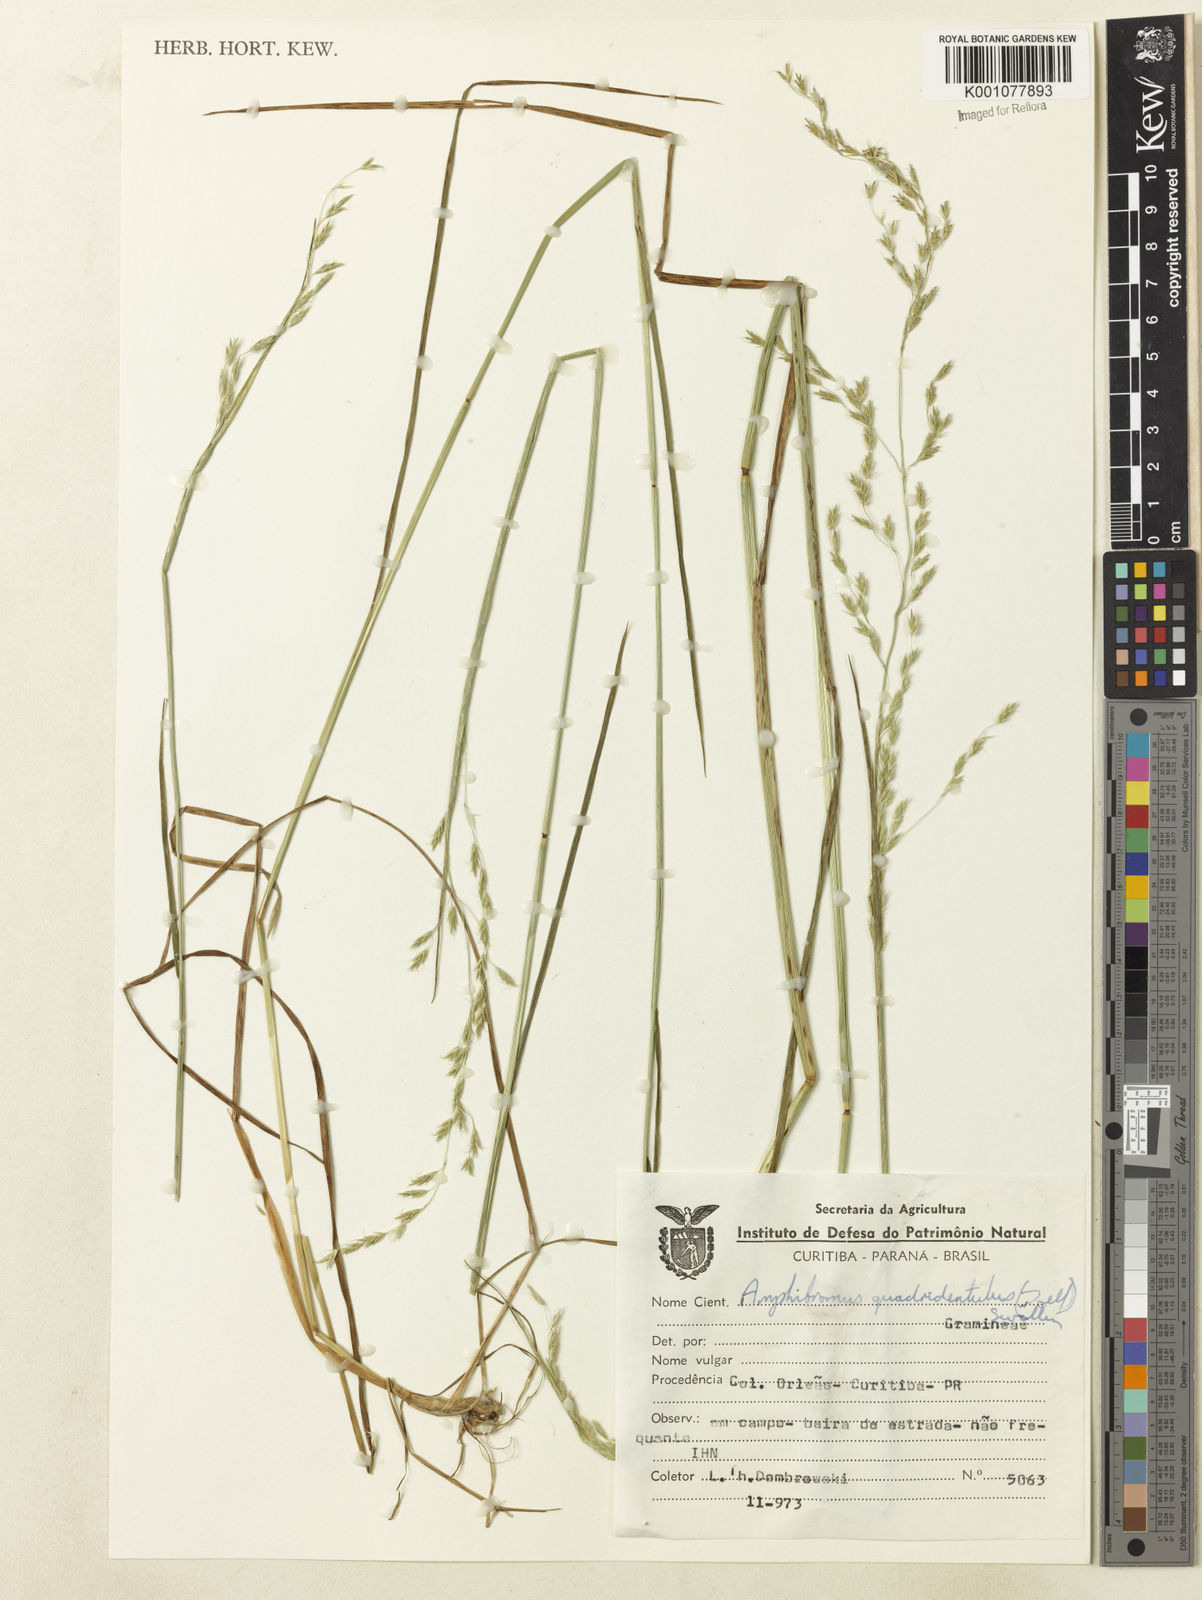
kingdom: Plantae
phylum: Tracheophyta
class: Liliopsida
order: Poales
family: Poaceae
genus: Helictotrichon
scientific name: Helictotrichon
